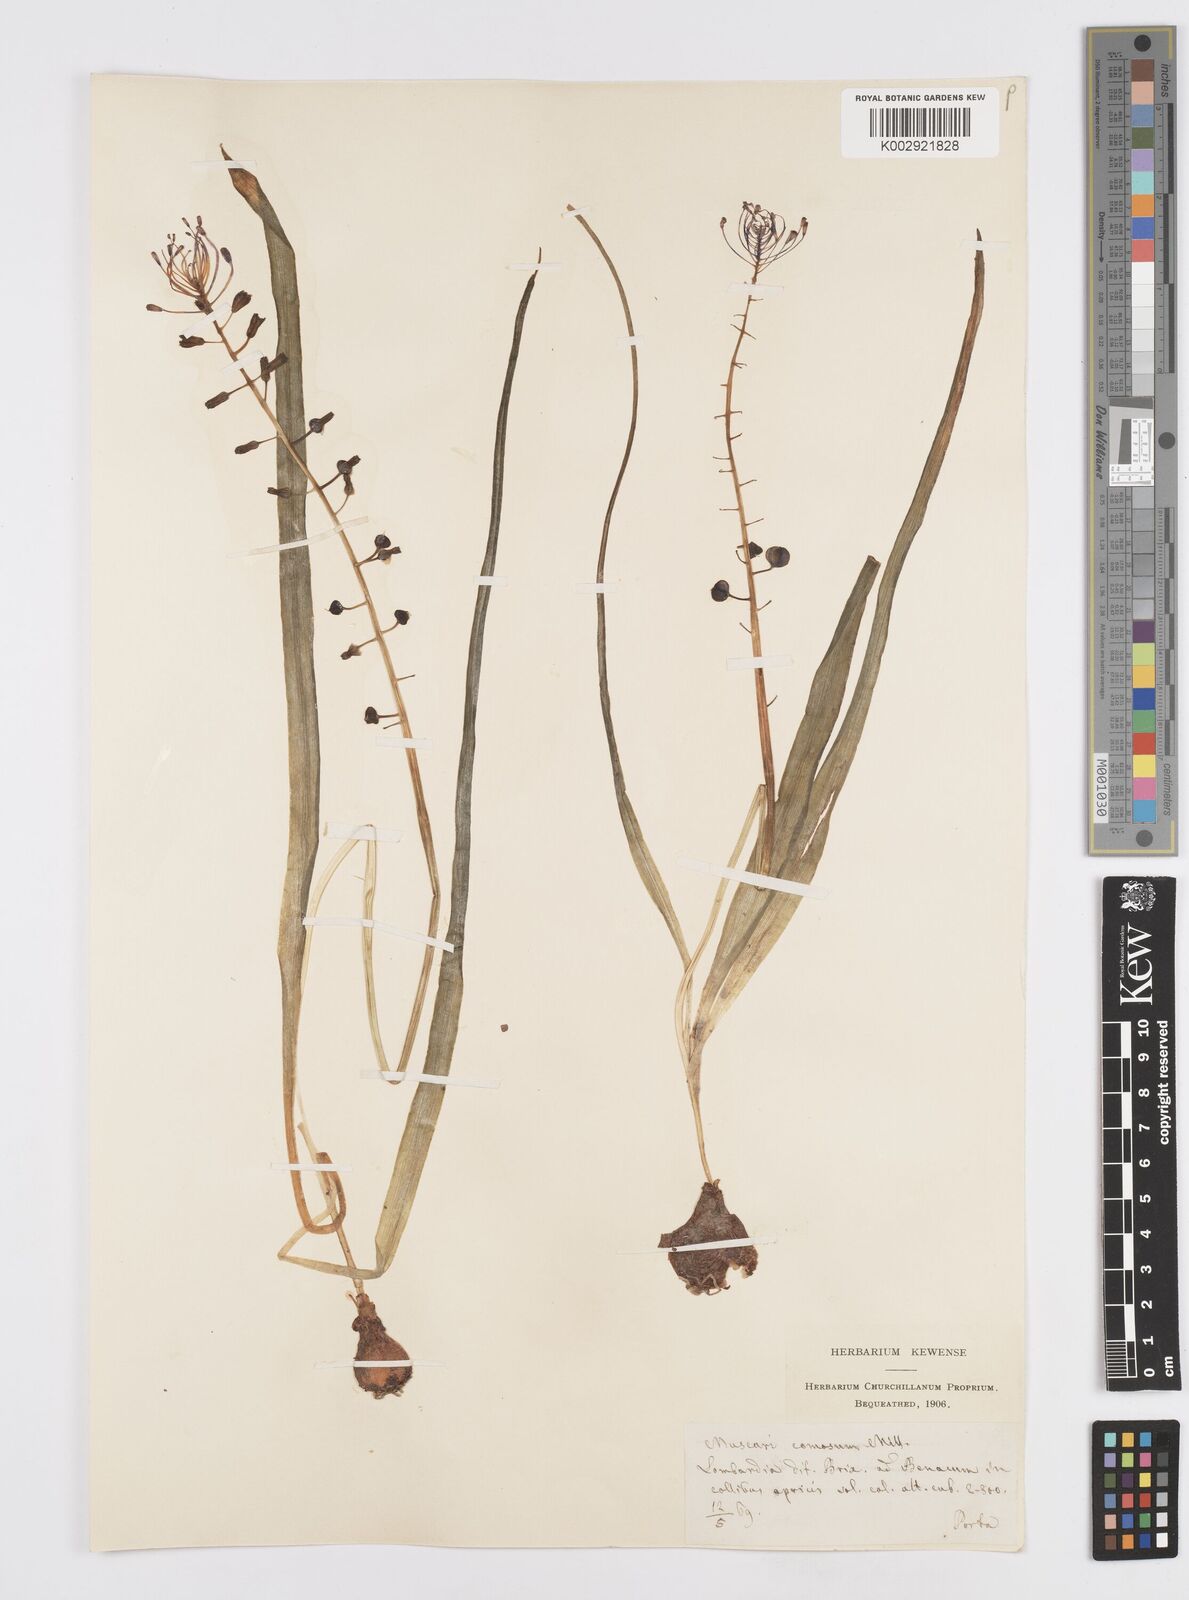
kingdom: Plantae
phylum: Tracheophyta
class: Liliopsida
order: Asparagales
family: Asparagaceae
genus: Muscari
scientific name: Muscari comosum
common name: Tassel hyacinth
